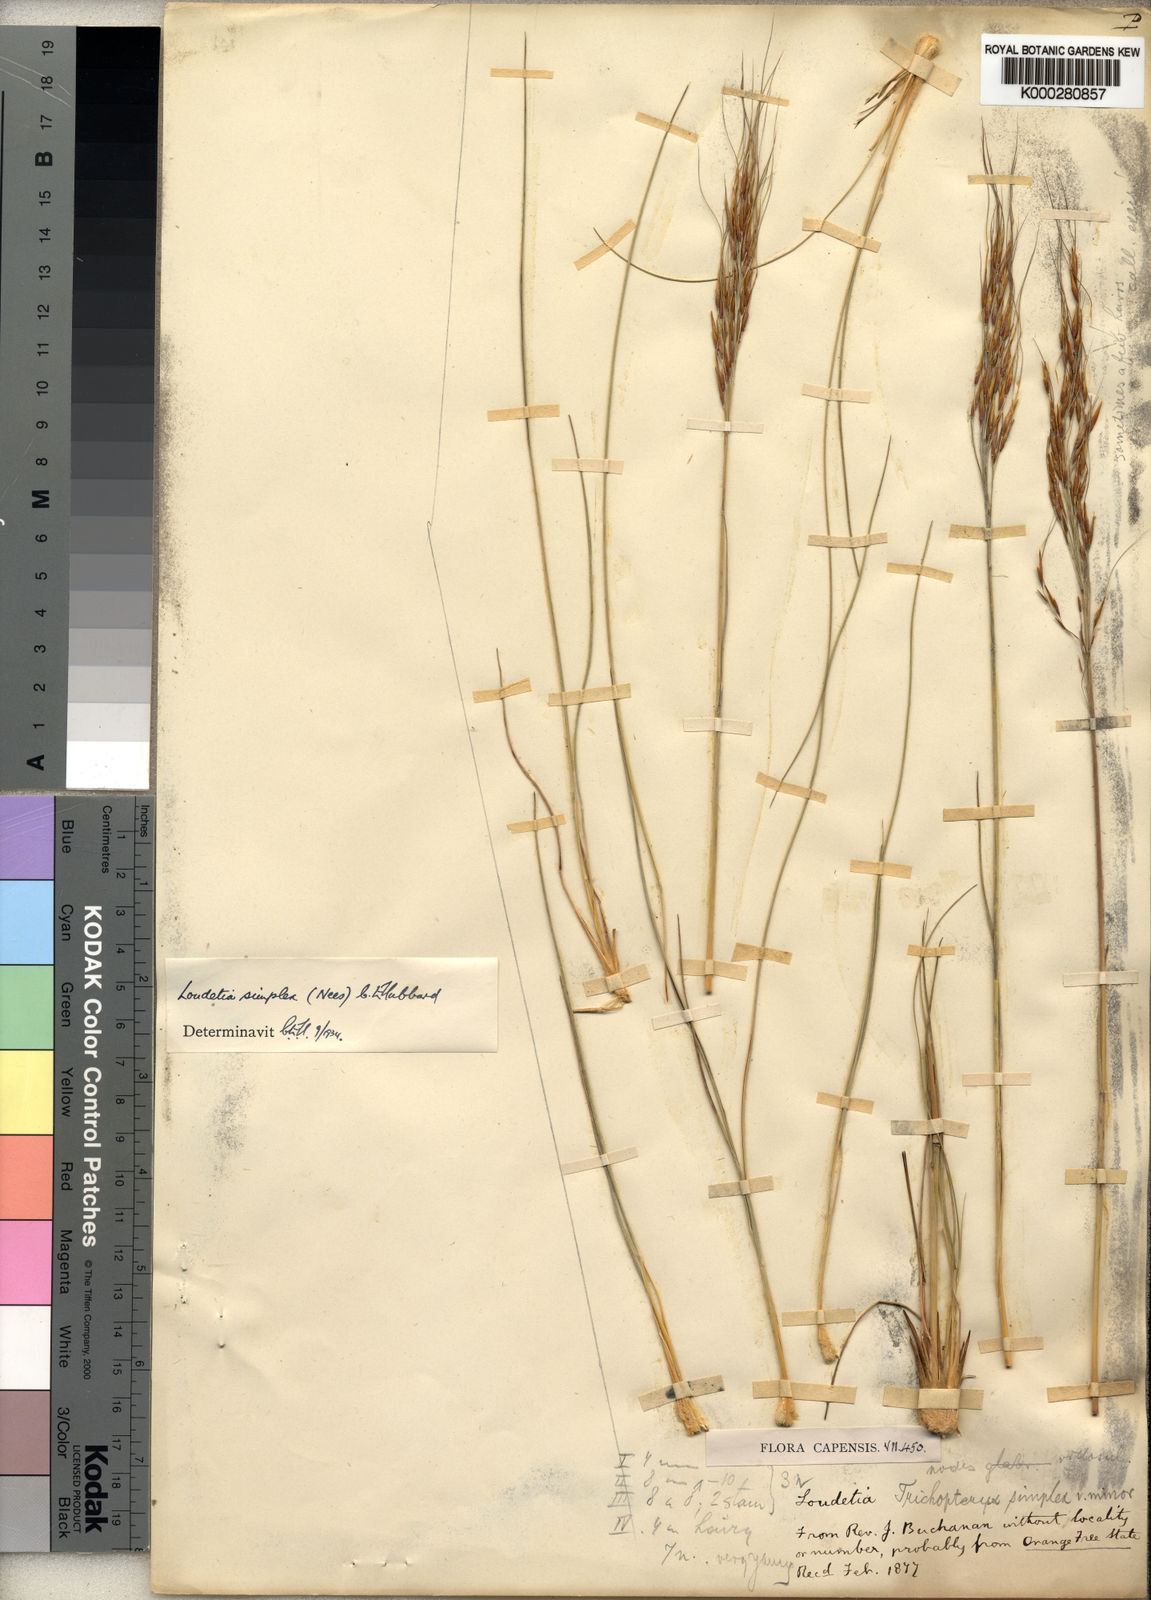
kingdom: Plantae
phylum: Tracheophyta
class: Liliopsida
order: Poales
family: Poaceae
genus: Loudetia
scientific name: Loudetia simplex
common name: Common russet grass
